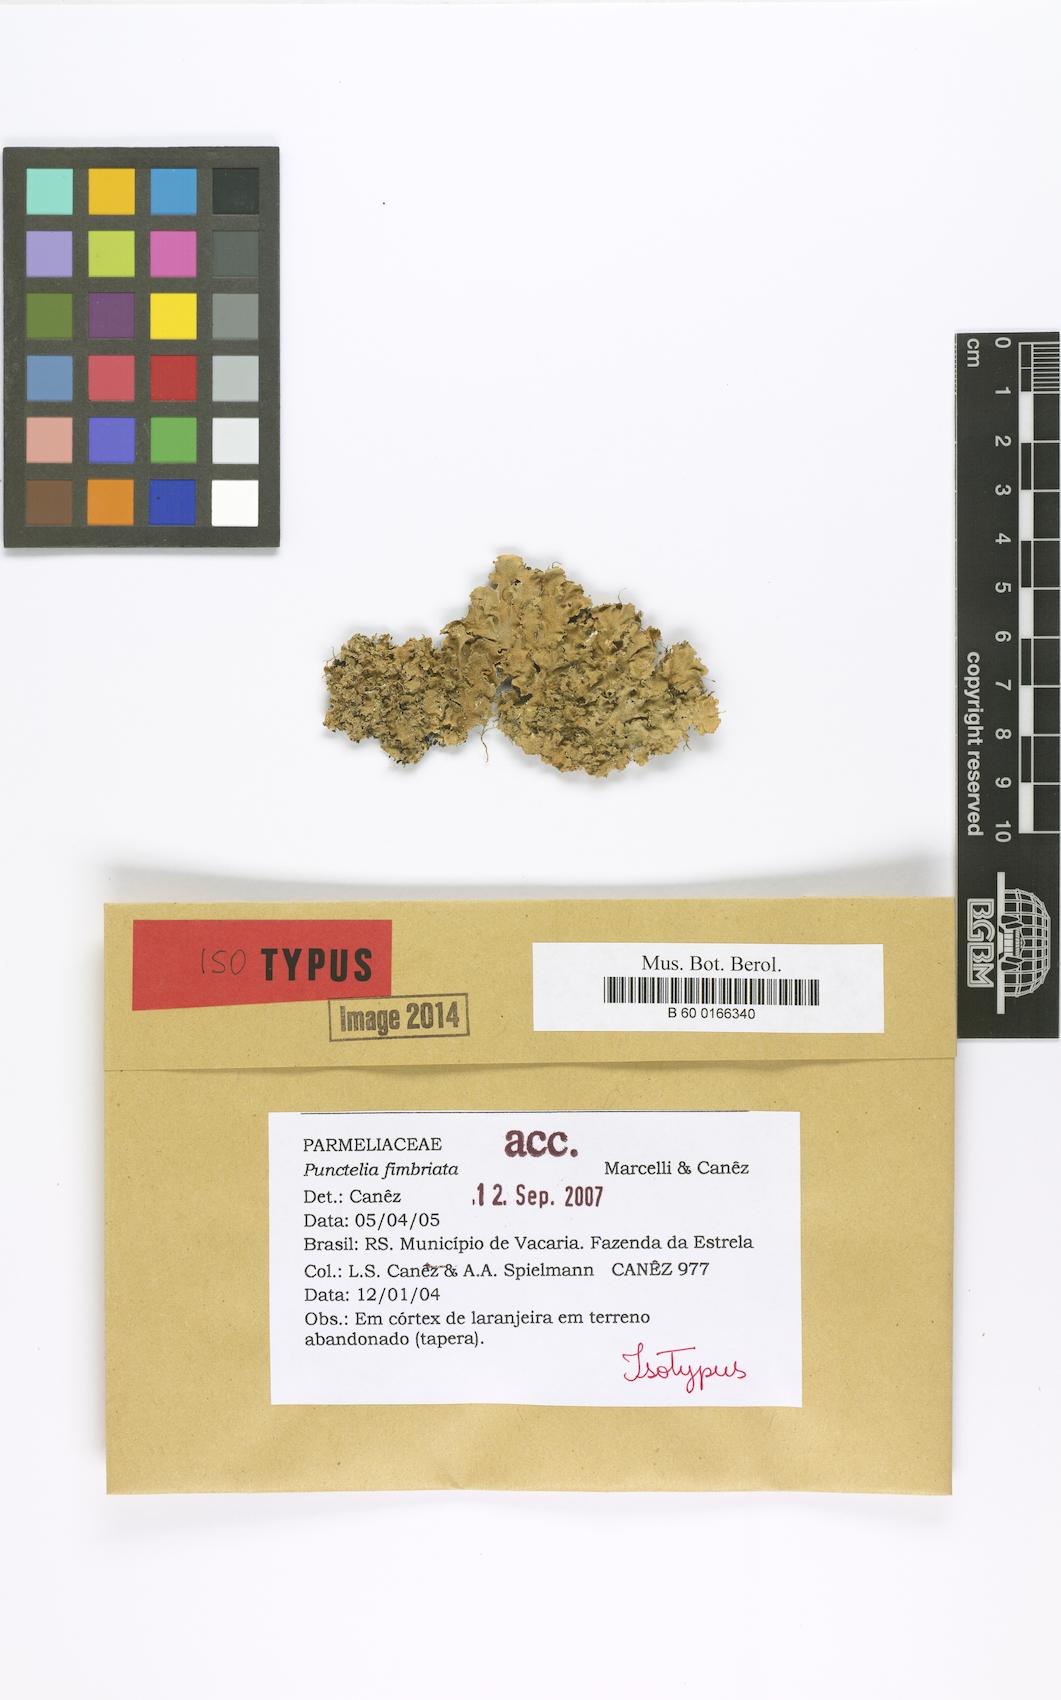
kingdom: Fungi
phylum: Ascomycota
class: Lecanoromycetes
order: Lecanorales
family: Parmeliaceae
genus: Punctelia
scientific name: Punctelia fimbriata
